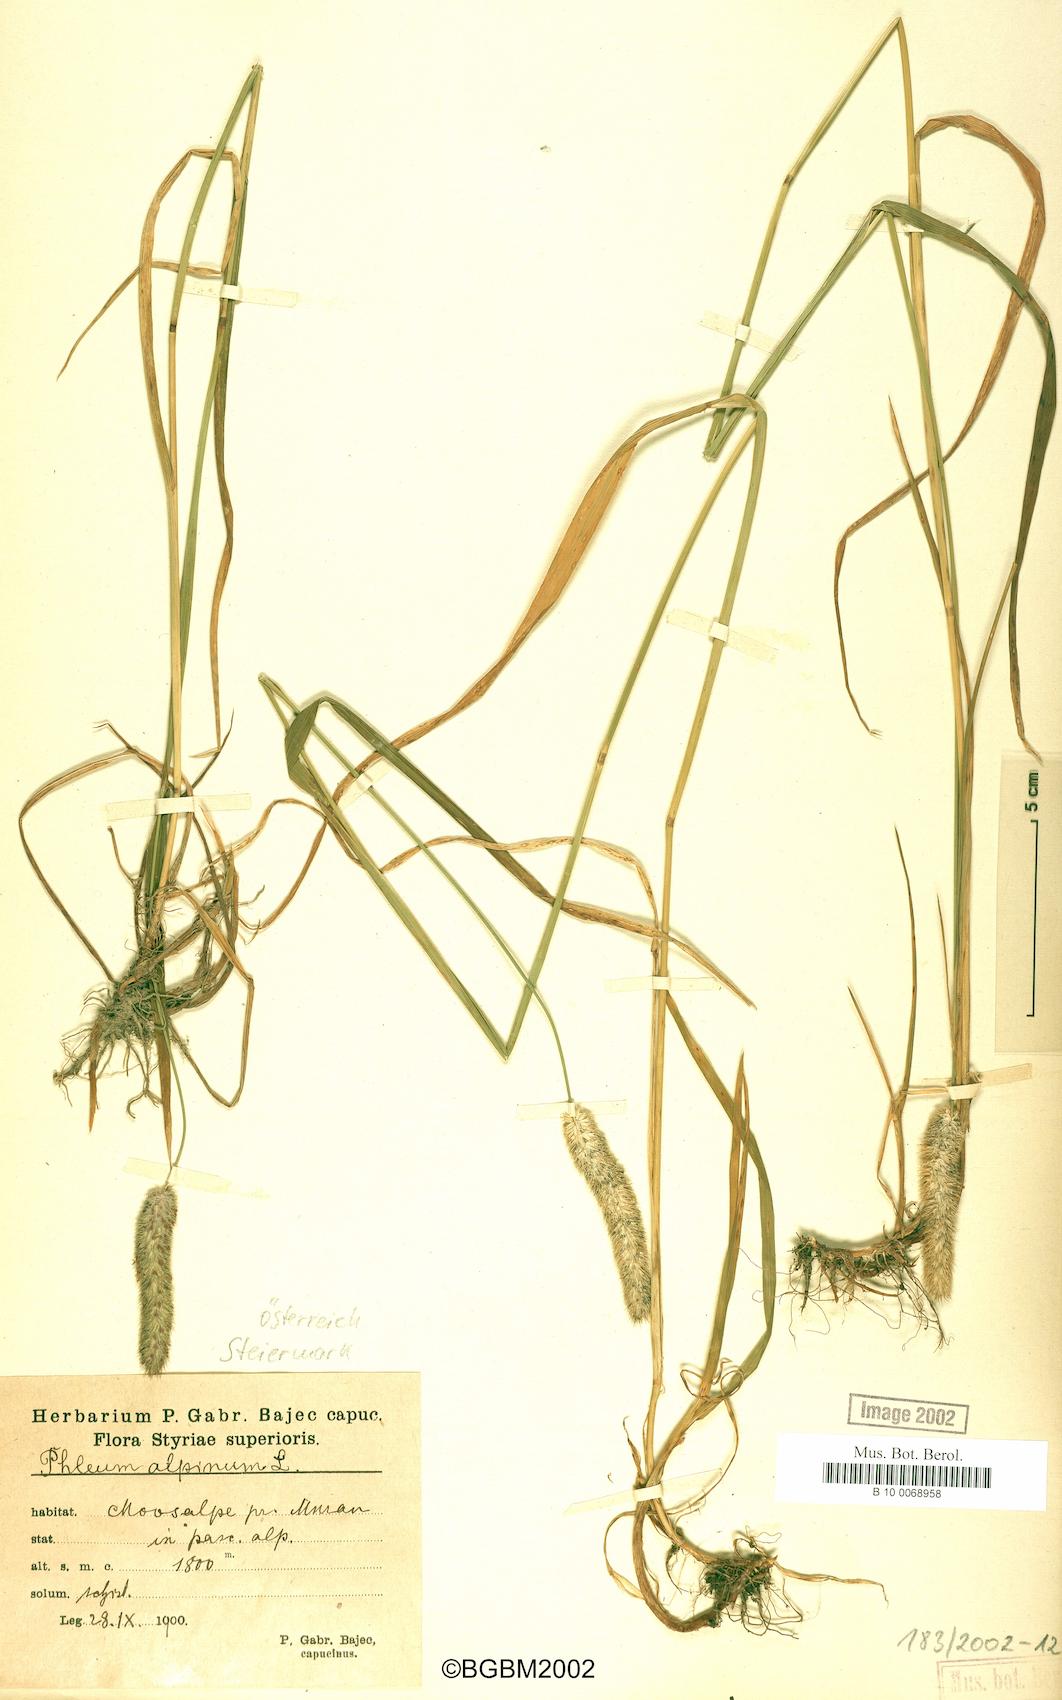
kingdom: Plantae
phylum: Tracheophyta
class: Liliopsida
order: Poales
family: Poaceae
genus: Phleum
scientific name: Phleum alpinum
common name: Alpine cat's-tail
